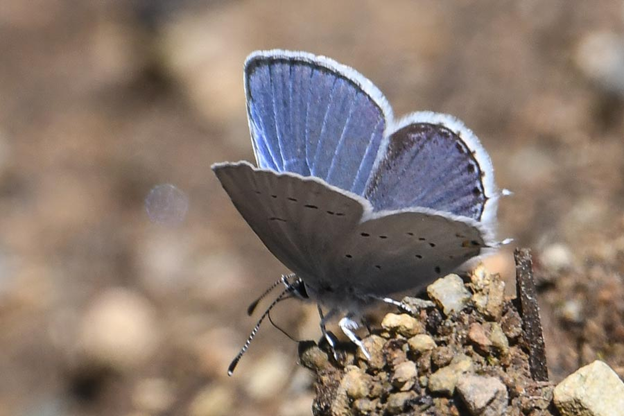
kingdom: Animalia
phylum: Arthropoda
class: Insecta
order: Lepidoptera
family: Lycaenidae
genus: Elkalyce
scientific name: Elkalyce amyntula
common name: Western Tailed-Blue
